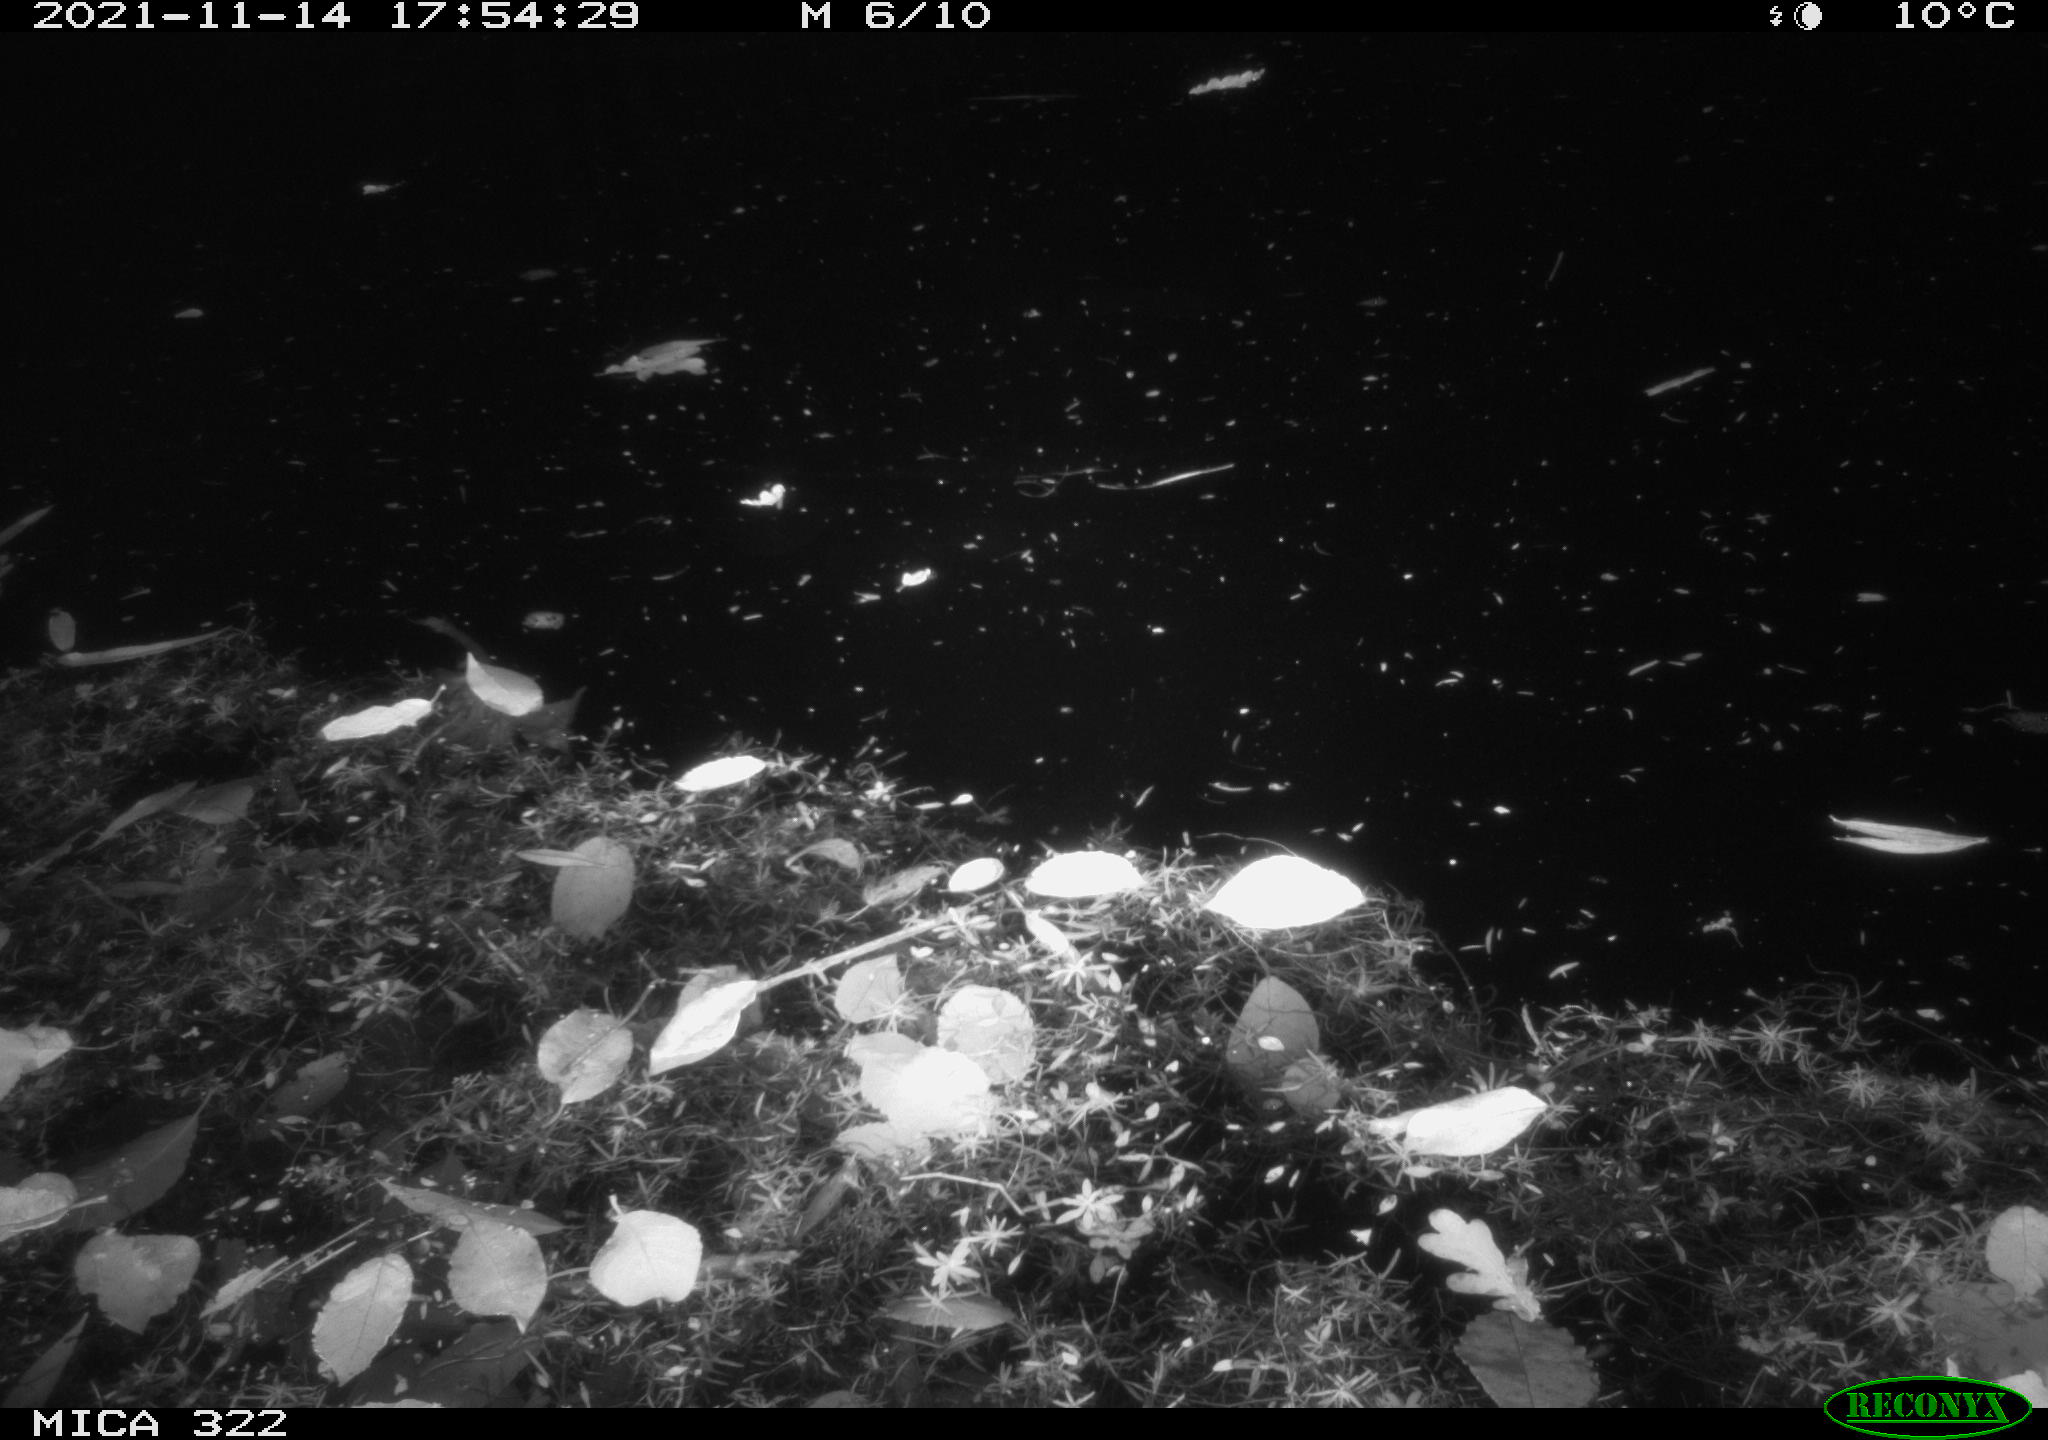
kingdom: Animalia
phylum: Chordata
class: Mammalia
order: Rodentia
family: Muridae
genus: Rattus
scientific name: Rattus norvegicus
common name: Brown rat
